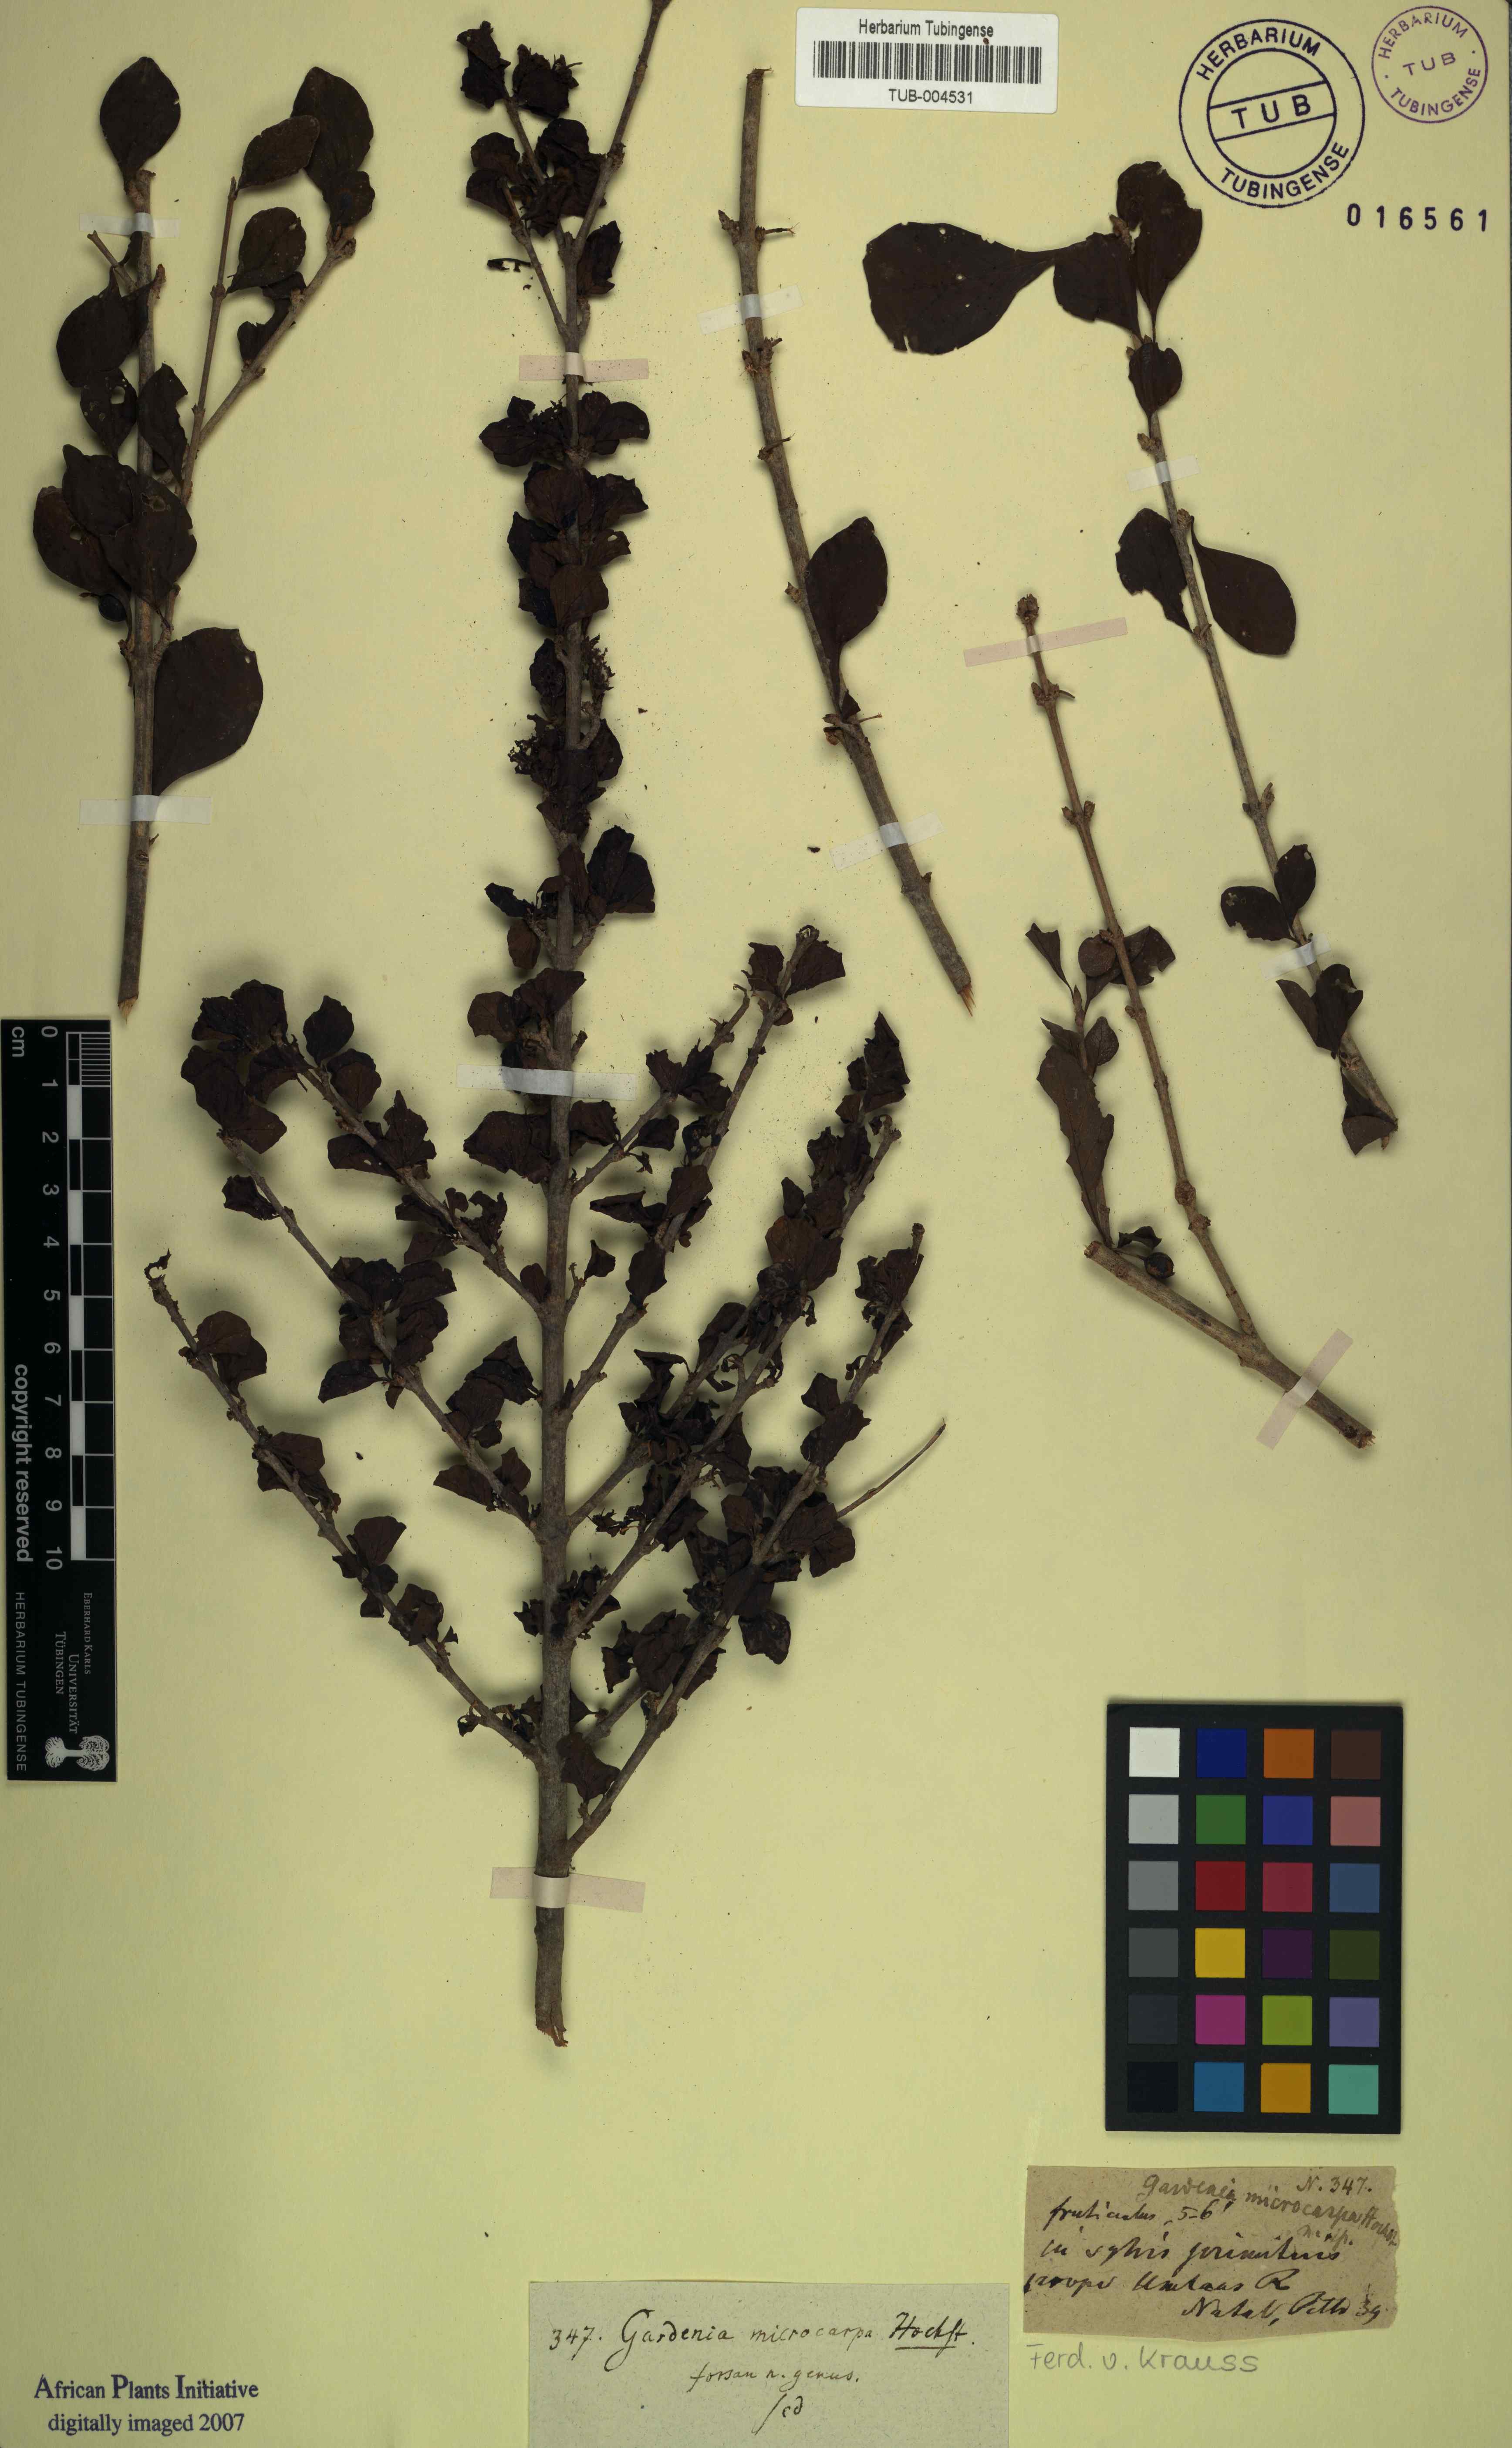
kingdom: Plantae
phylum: Tracheophyta
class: Magnoliopsida
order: Gentianales
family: Rubiaceae
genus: Coddia
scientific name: Coddia rudis
